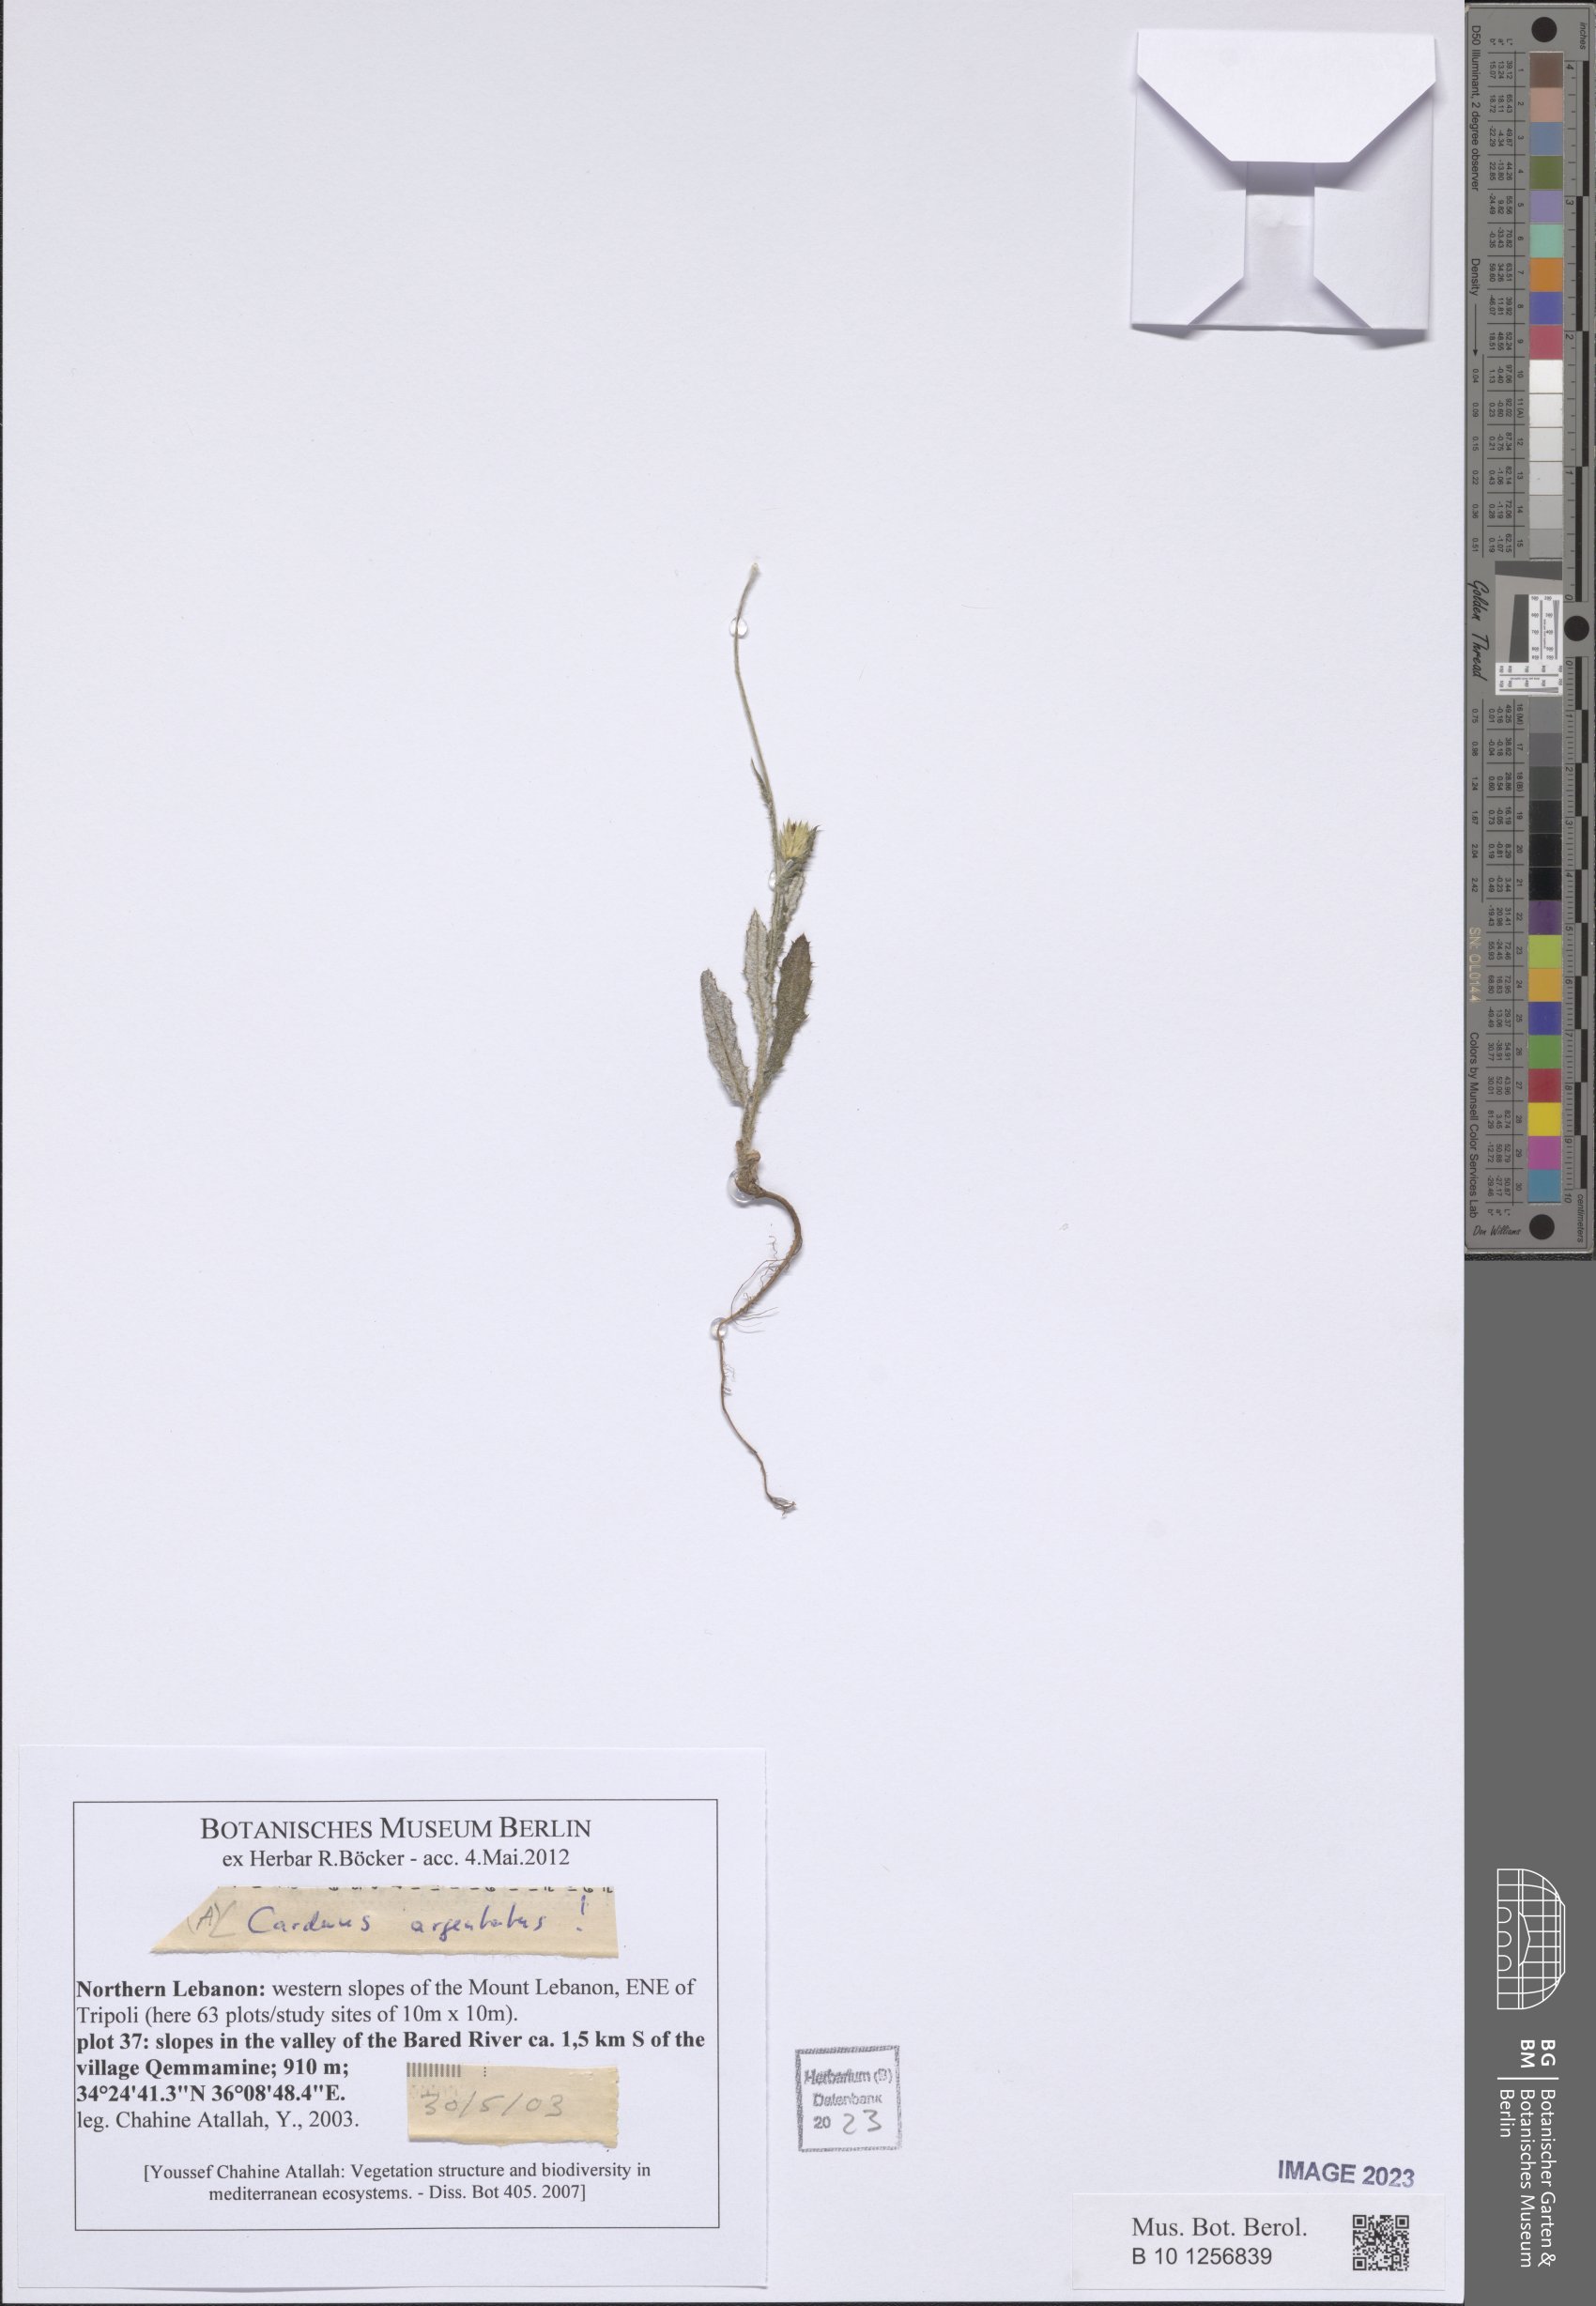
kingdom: Plantae
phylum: Tracheophyta
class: Magnoliopsida
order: Asterales
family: Asteraceae
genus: Carduus
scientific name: Carduus argentatus
